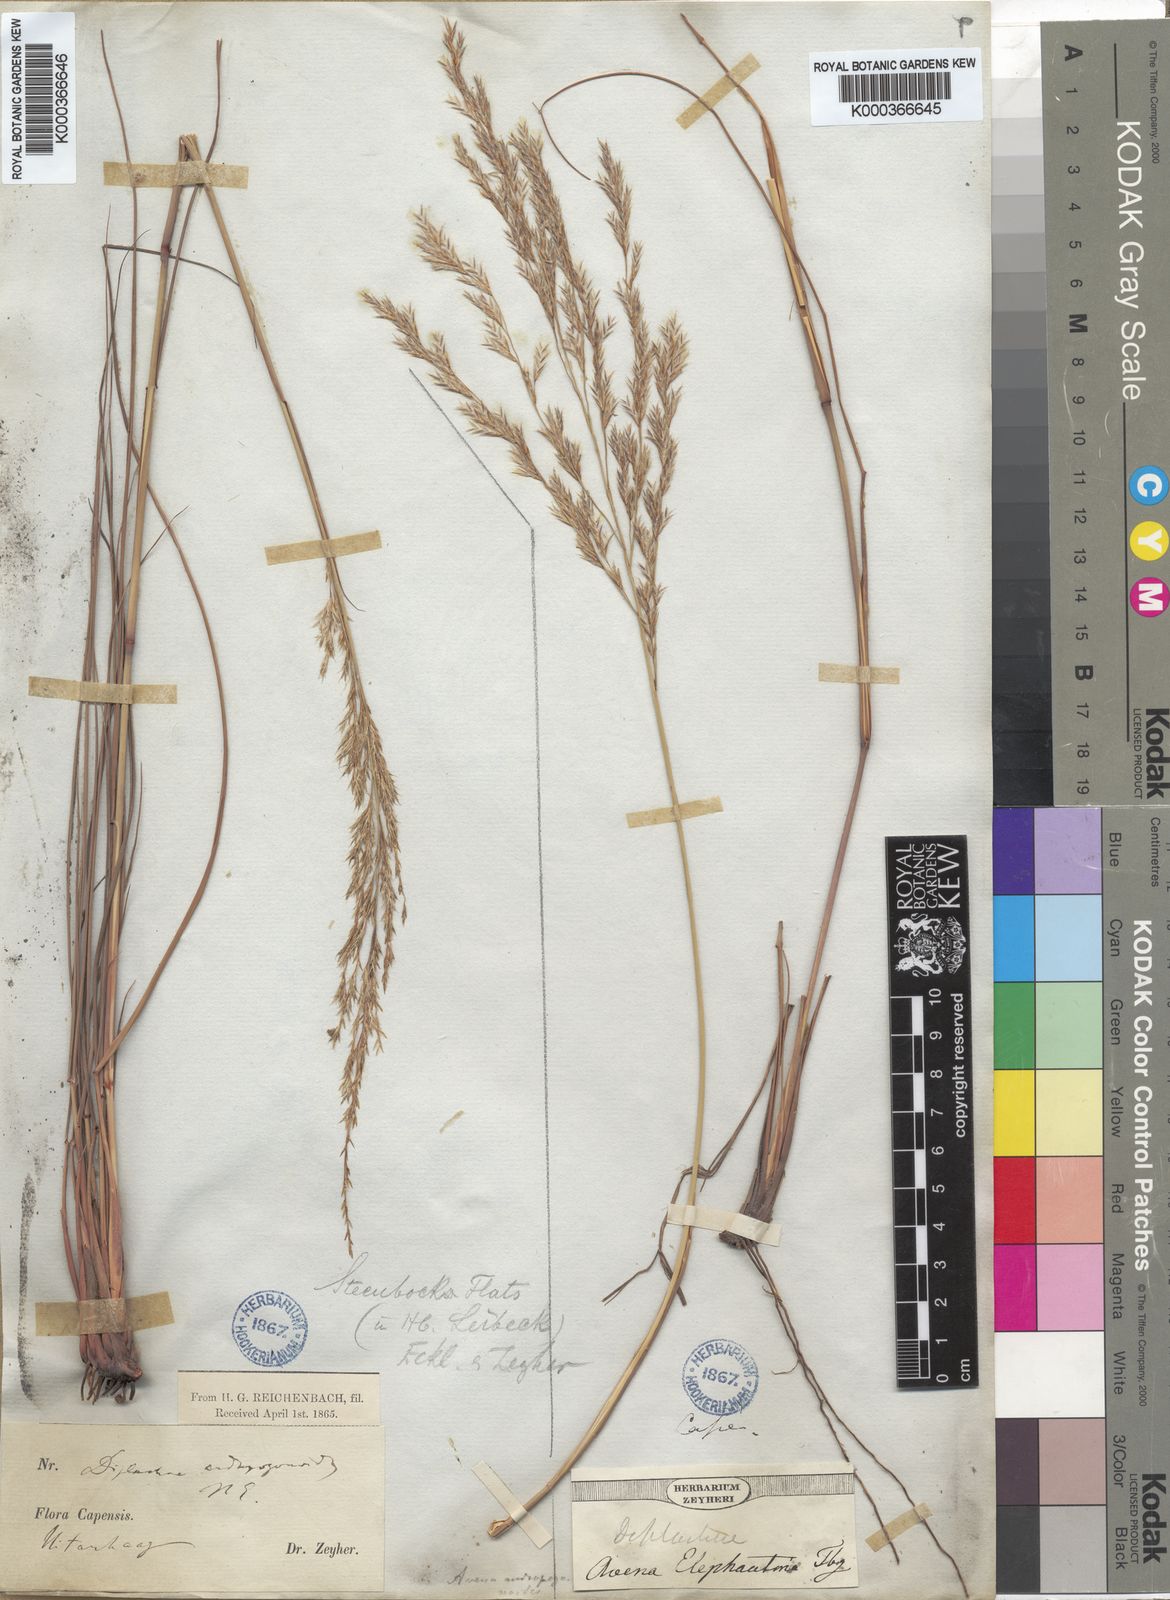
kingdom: Plantae
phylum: Tracheophyta
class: Liliopsida
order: Poales
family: Poaceae
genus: Triraphis
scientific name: Triraphis andropogonoides
